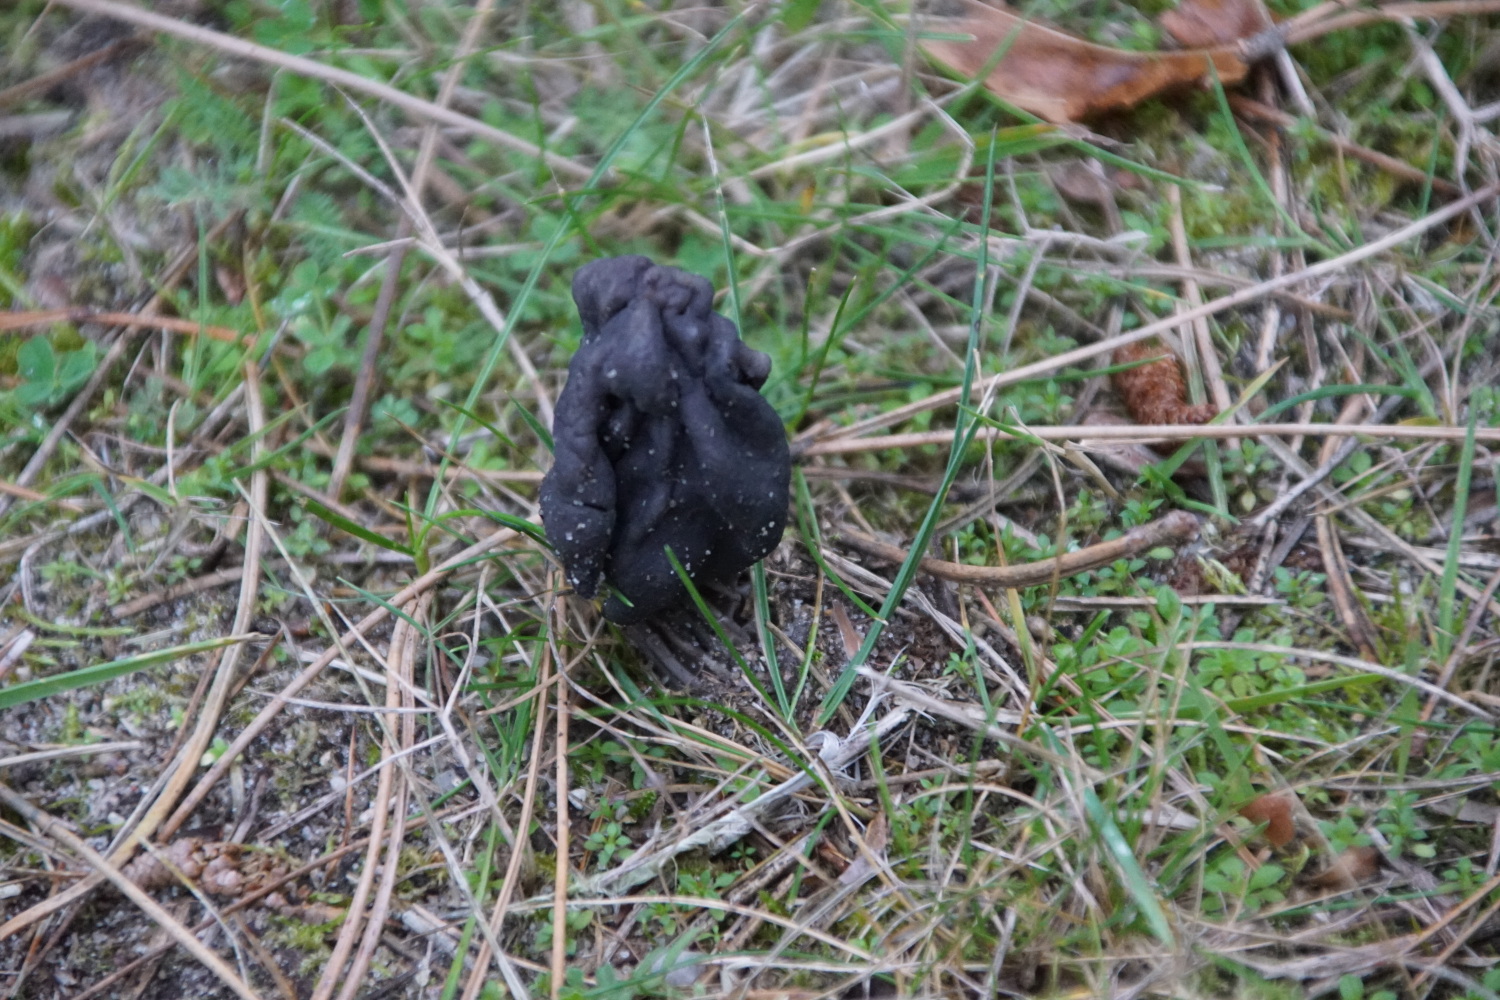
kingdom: Fungi
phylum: Ascomycota
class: Pezizomycetes
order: Pezizales
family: Helvellaceae
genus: Helvella
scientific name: Helvella lacunosa
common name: grubet foldhat
